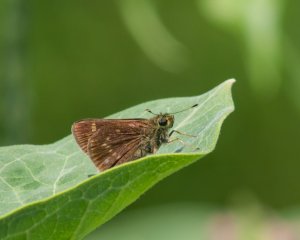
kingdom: Animalia
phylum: Arthropoda
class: Insecta
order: Lepidoptera
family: Hesperiidae
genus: Vernia
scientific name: Vernia verna
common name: Little Glassywing
